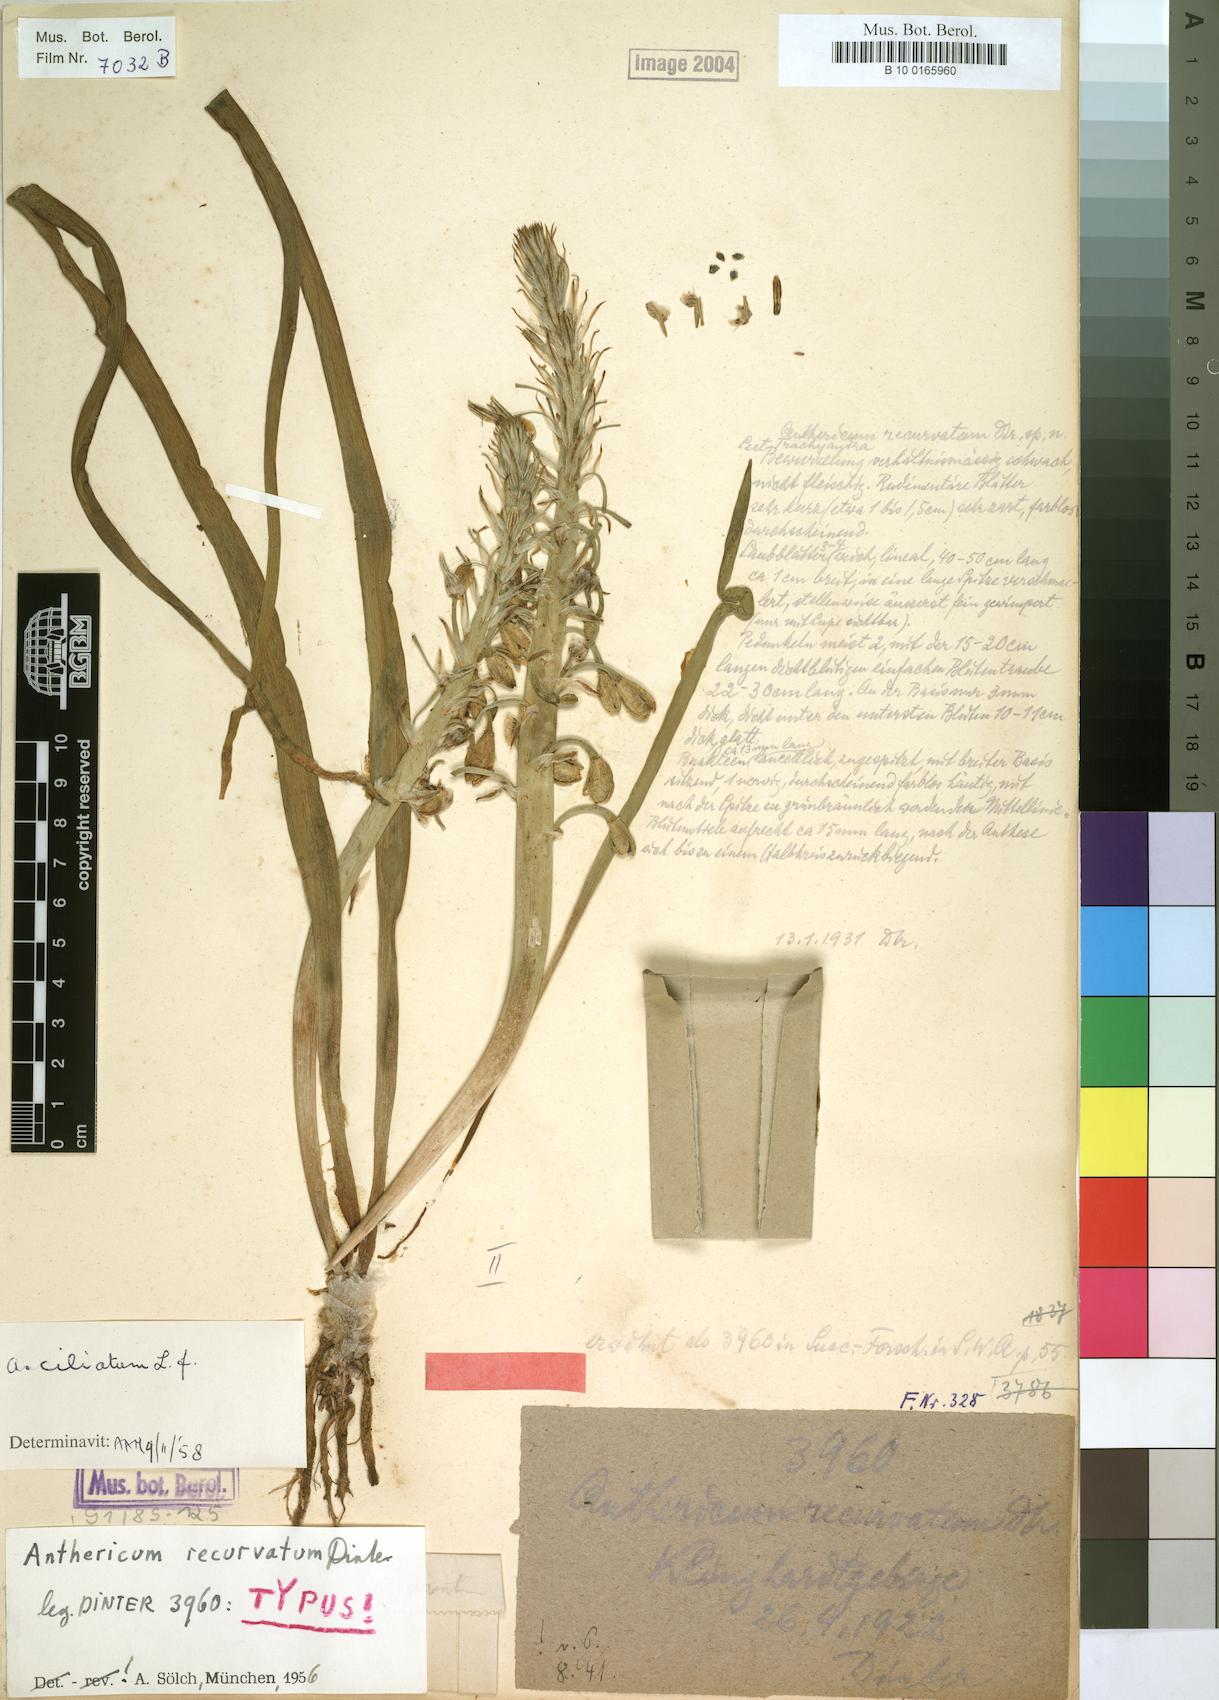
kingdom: Plantae
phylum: Tracheophyta
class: Liliopsida
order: Asparagales
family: Asphodelaceae
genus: Trachyandra
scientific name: Trachyandra ciliata
